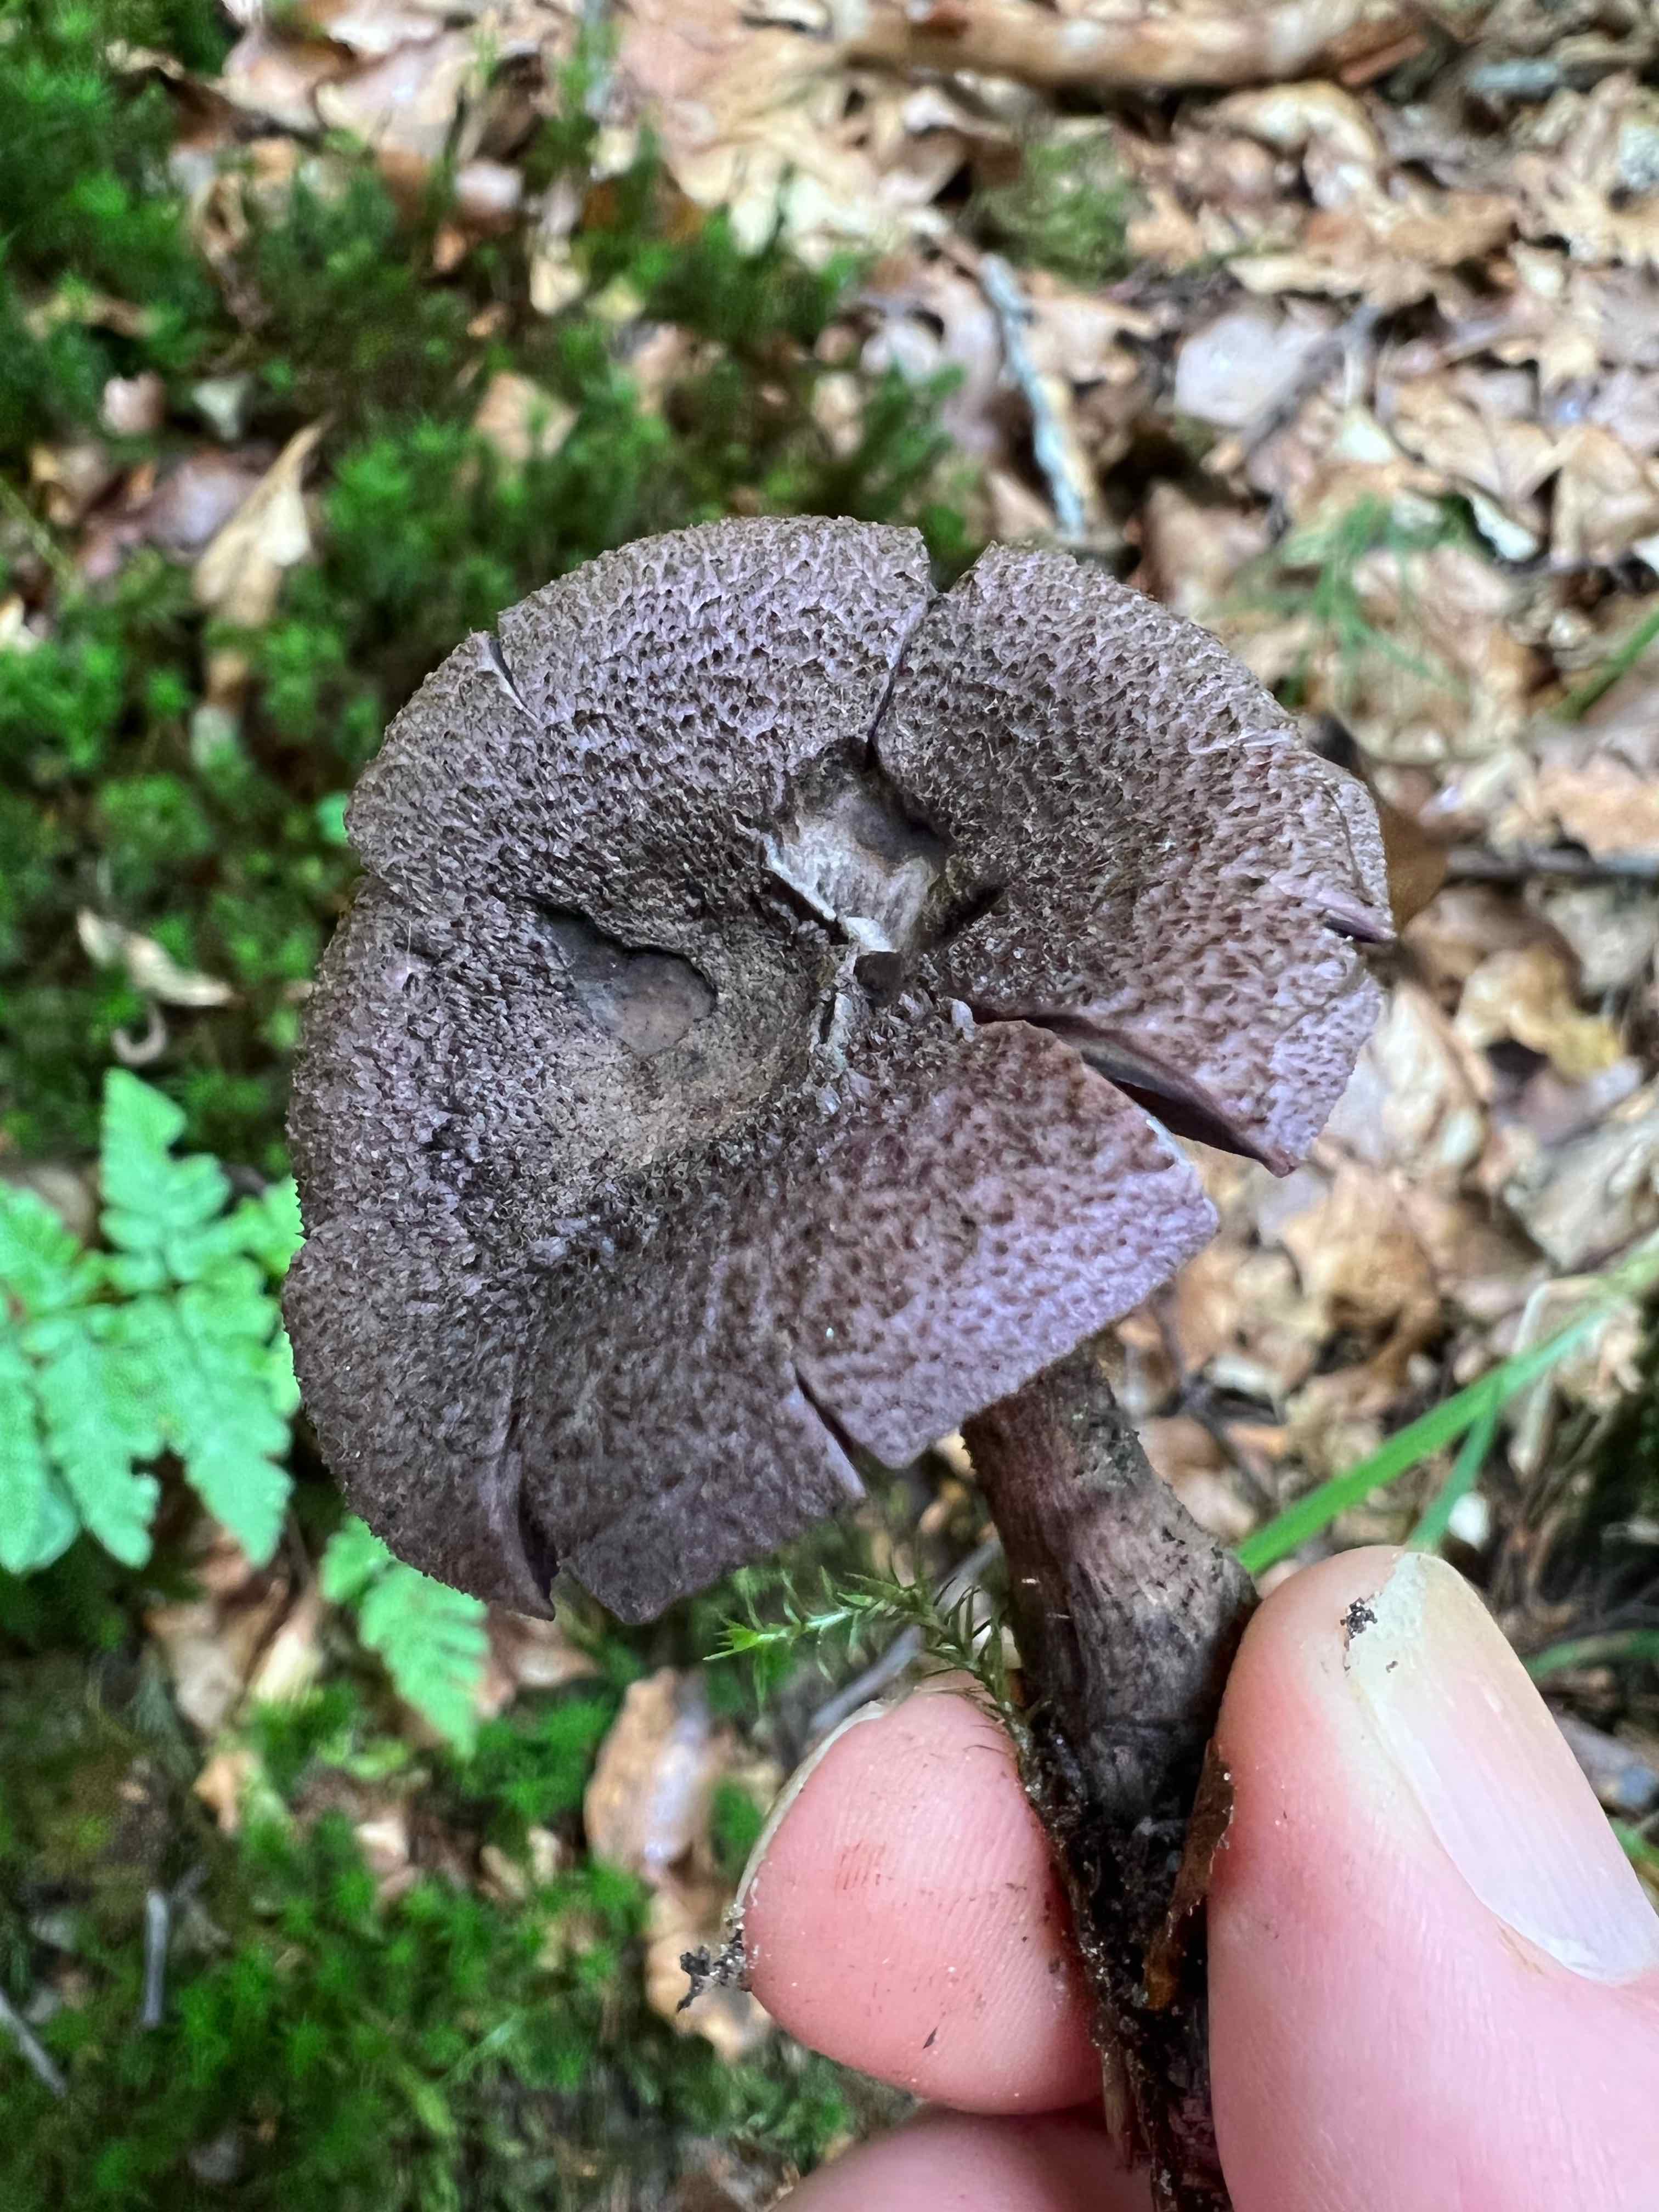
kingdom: Fungi
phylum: Basidiomycota
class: Agaricomycetes
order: Agaricales
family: Cortinariaceae
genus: Cortinarius
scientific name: Cortinarius violaceus
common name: mørkviolet slørhat
